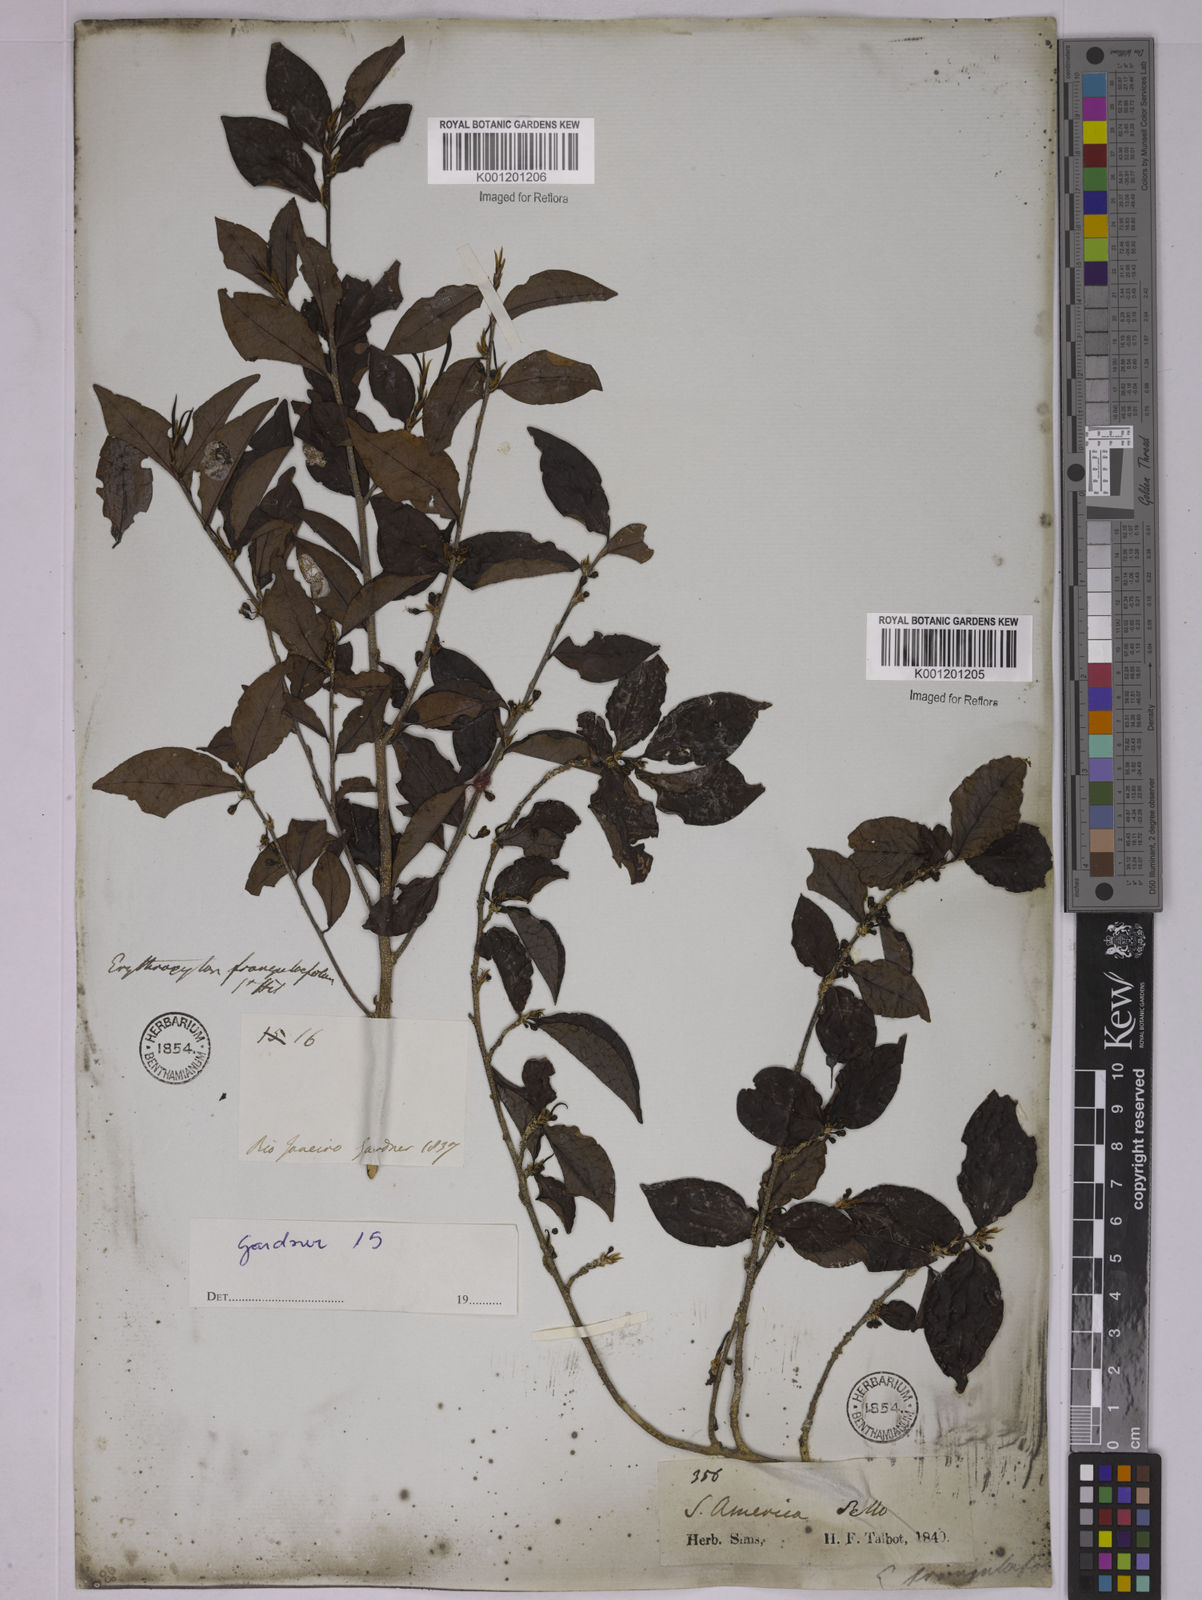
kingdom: Plantae
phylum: Tracheophyta
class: Magnoliopsida
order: Malpighiales
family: Erythroxylaceae
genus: Erythroxylum
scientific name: Erythroxylum frangulifolium
